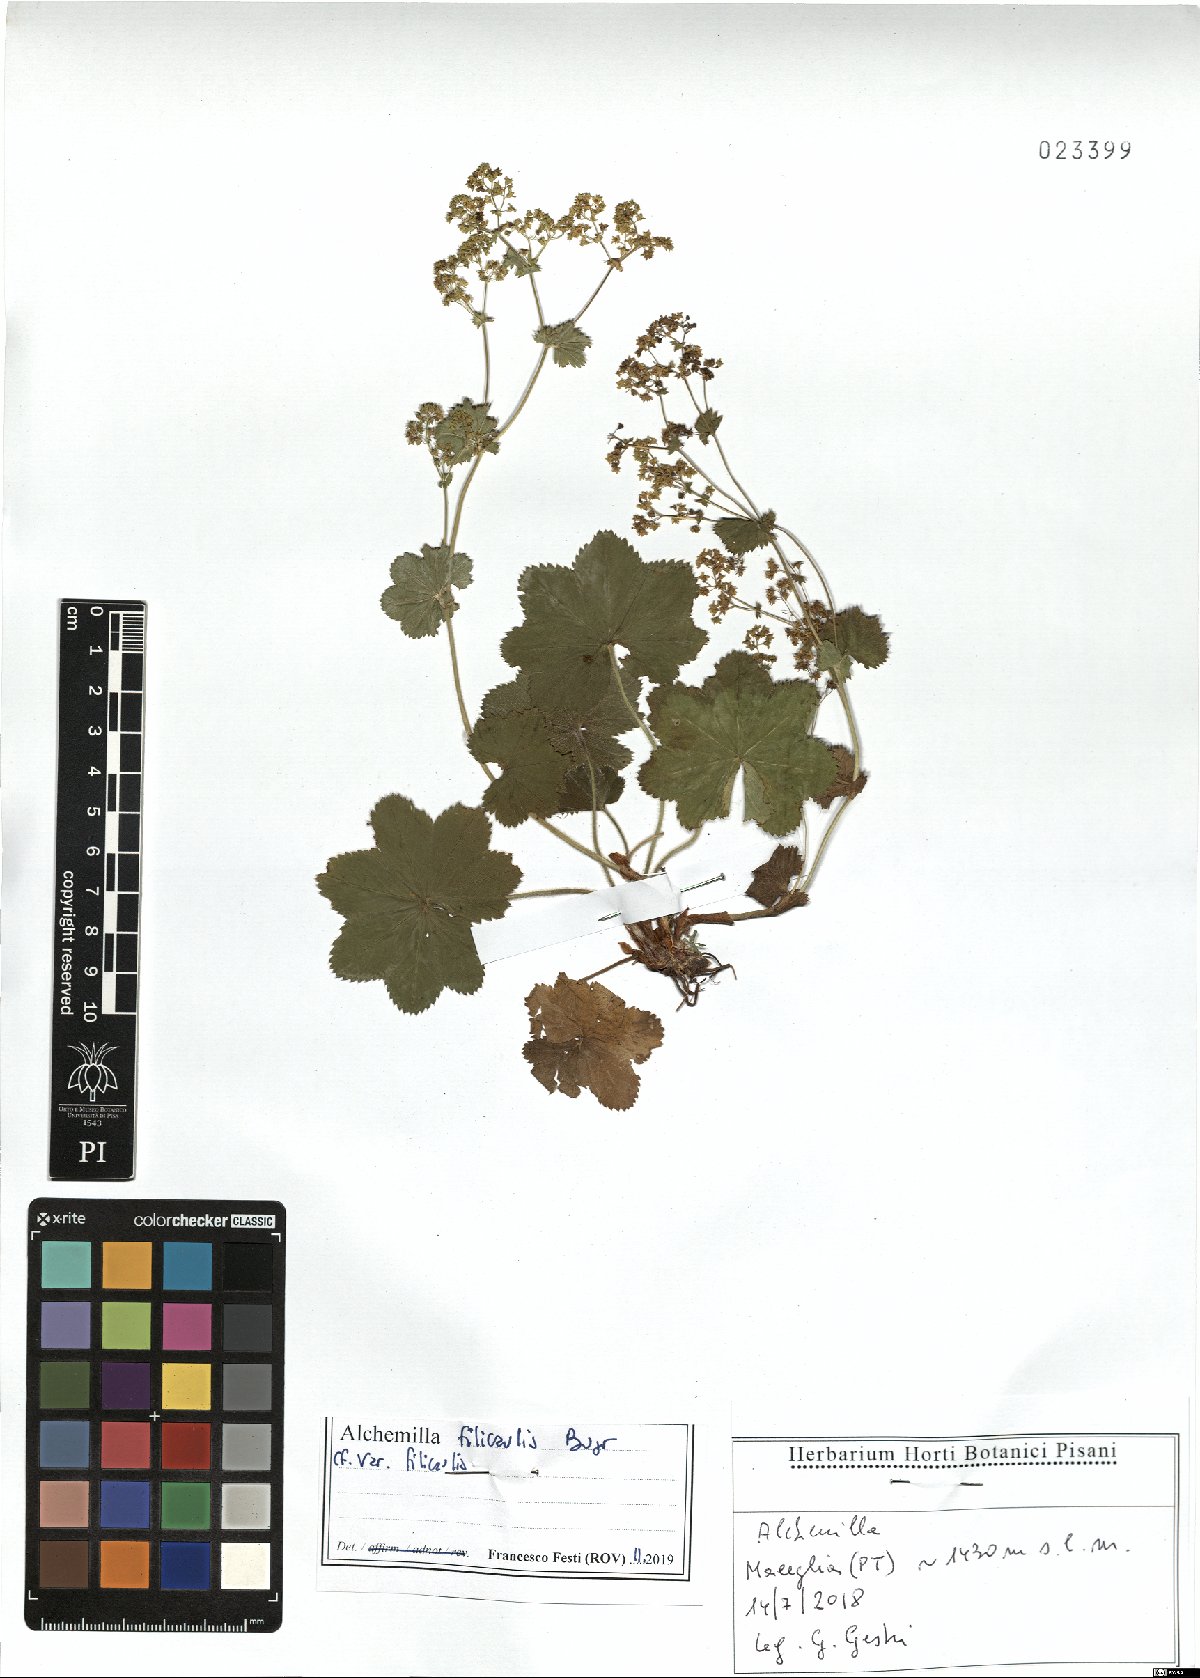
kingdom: Plantae
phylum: Tracheophyta
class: Magnoliopsida
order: Rosales
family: Rosaceae
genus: Alchemilla
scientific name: Alchemilla vulgaris
